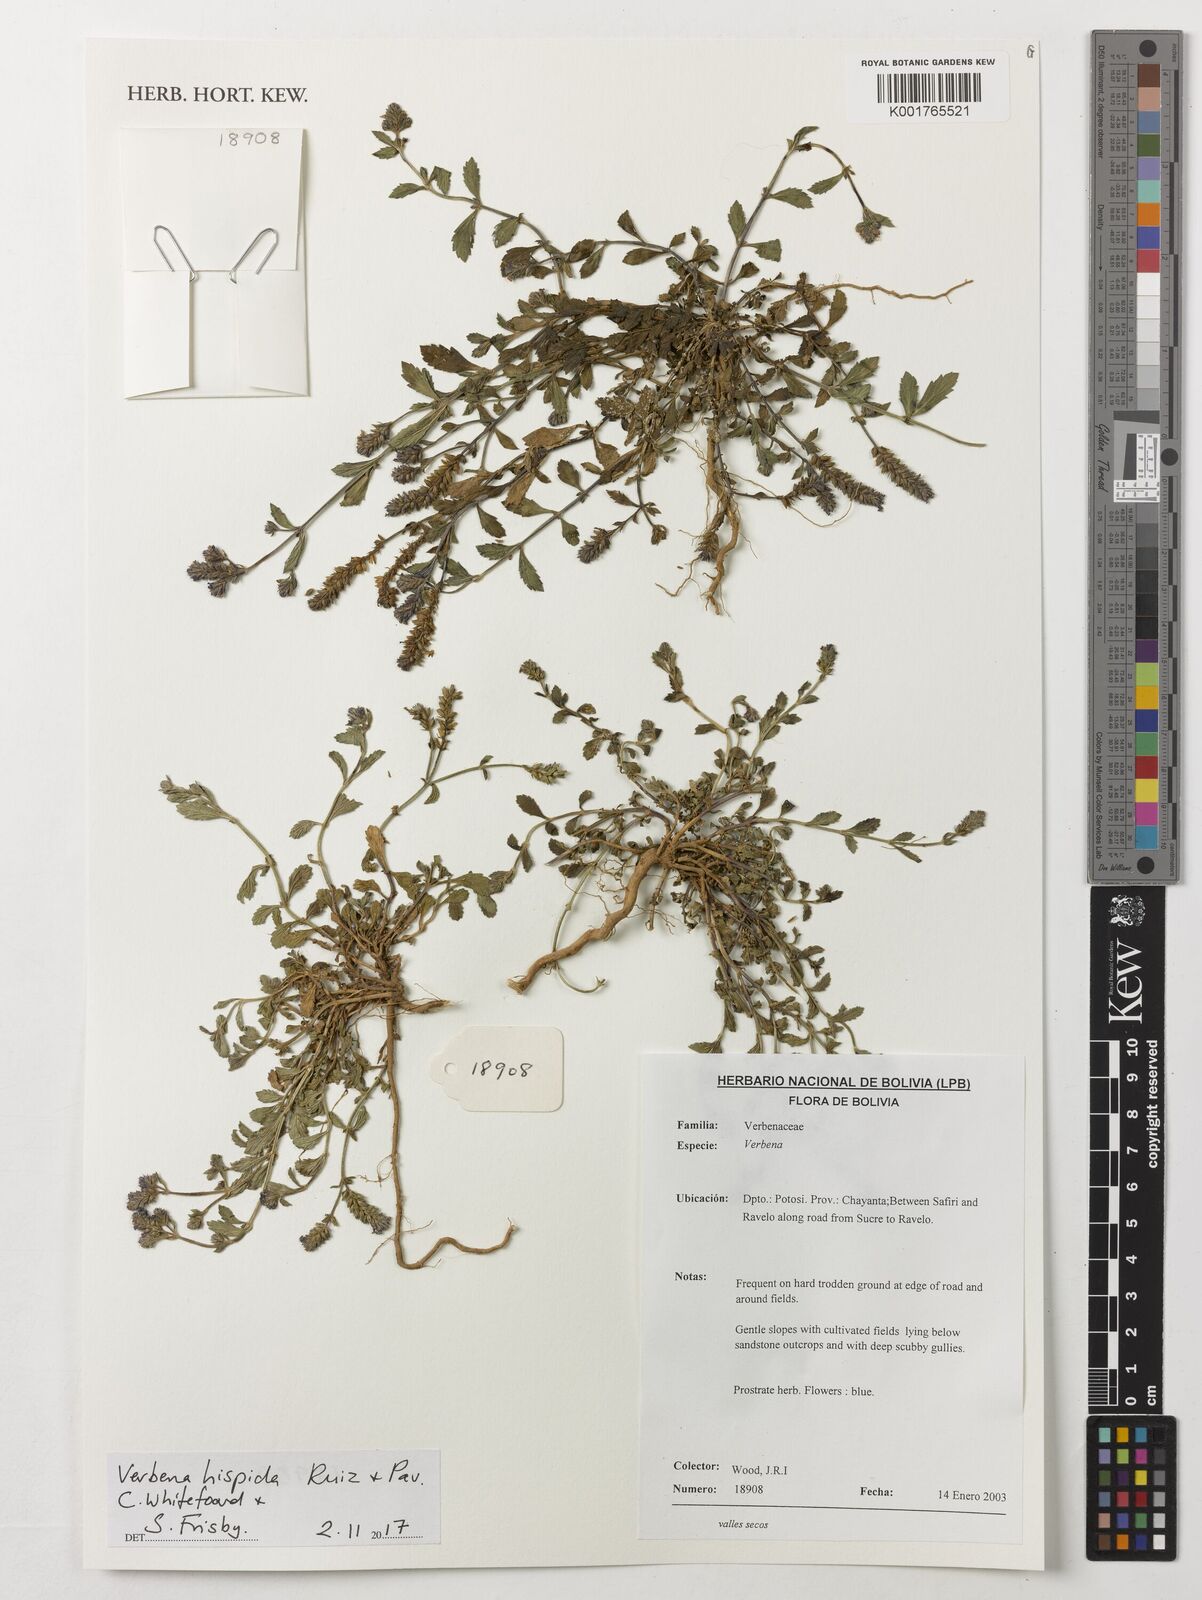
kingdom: Plantae
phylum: Tracheophyta
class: Magnoliopsida
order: Lamiales
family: Verbenaceae
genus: Verbena
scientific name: Verbena hispida
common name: Hairy vervain
